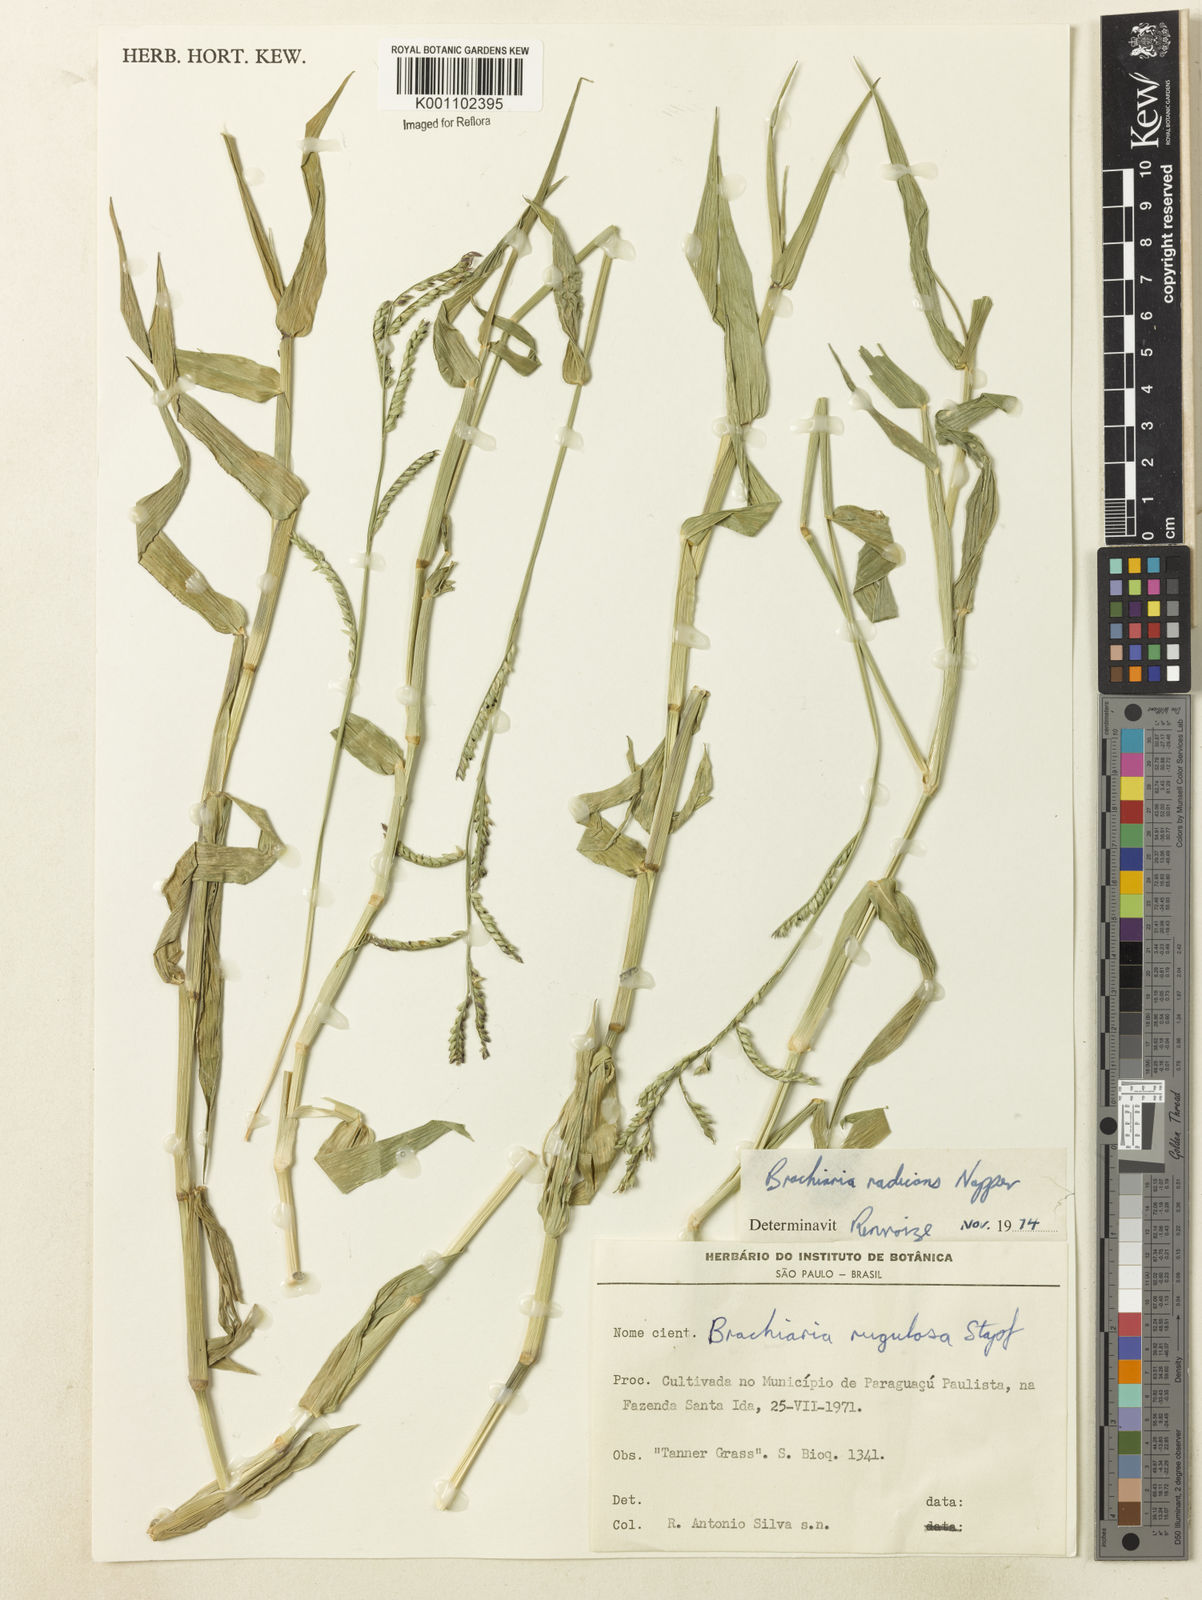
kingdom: Plantae
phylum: Tracheophyta
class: Liliopsida
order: Poales
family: Poaceae
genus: Urochloa
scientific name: Urochloa arrecta
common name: African signalgrass
